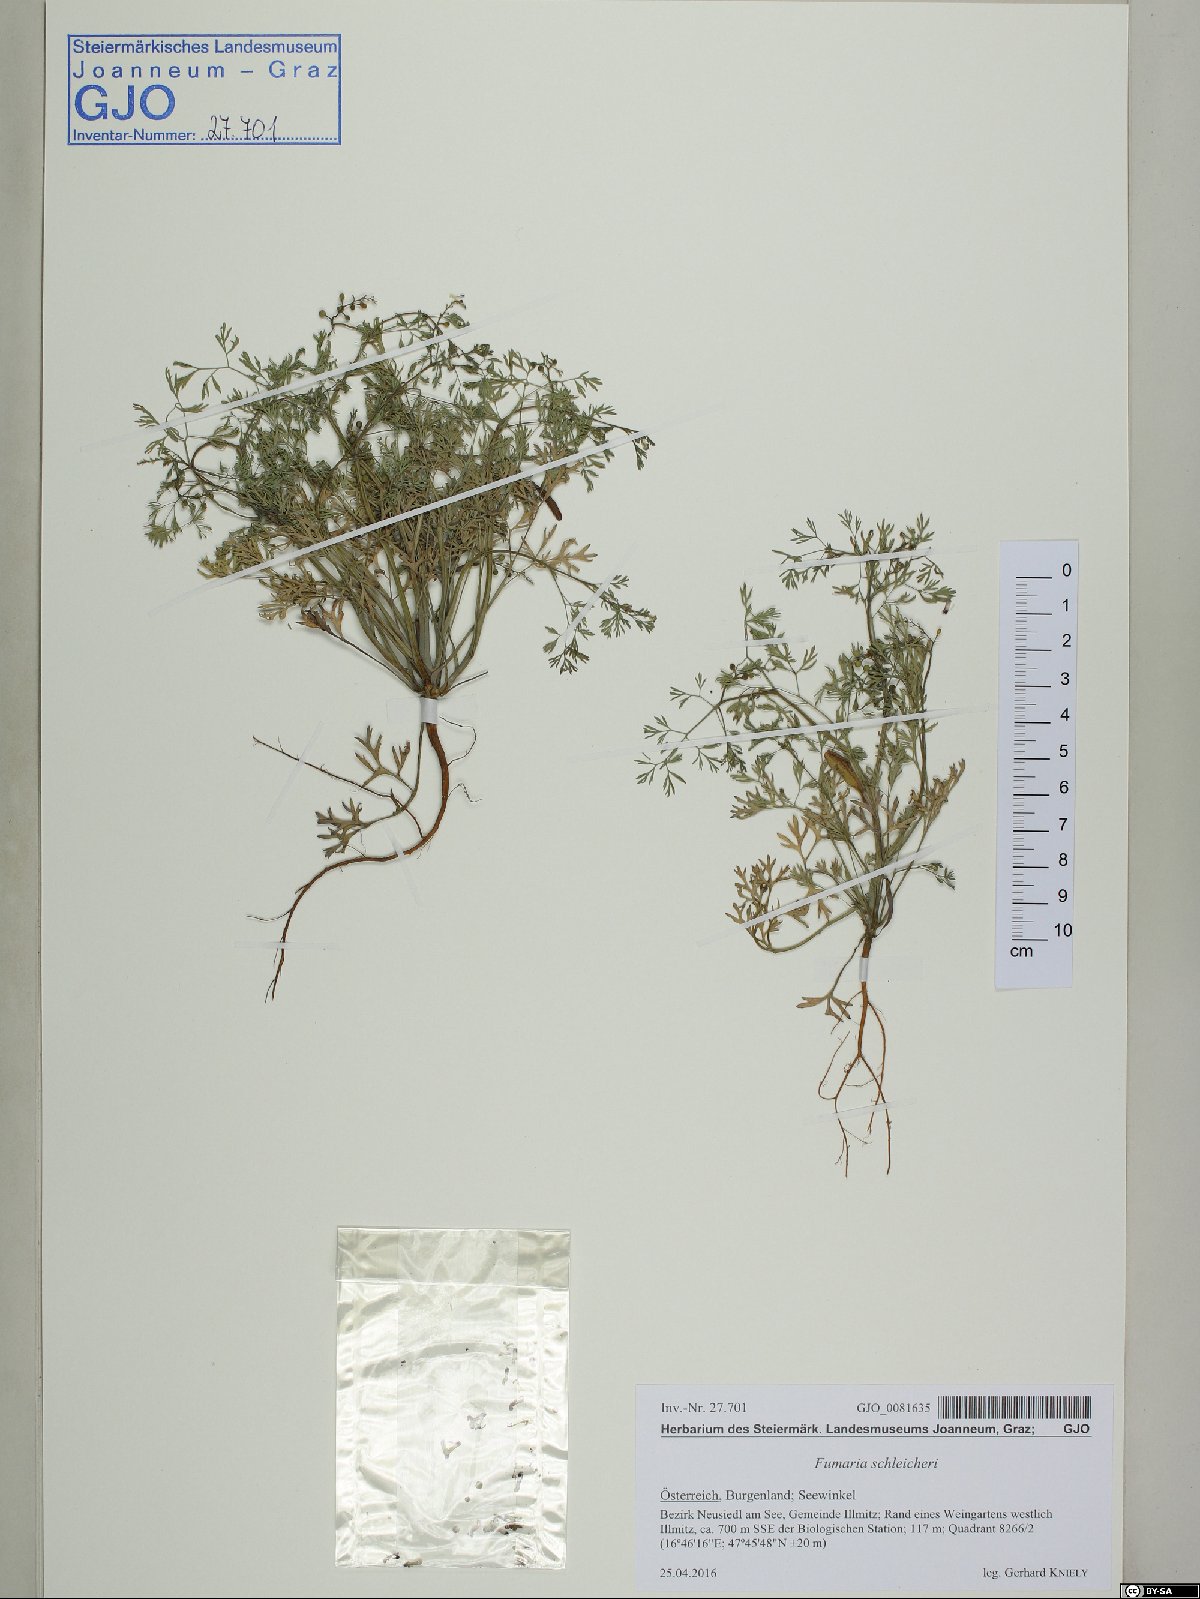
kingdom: Plantae
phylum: Tracheophyta
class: Magnoliopsida
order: Ranunculales
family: Papaveraceae
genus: Fumaria
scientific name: Fumaria schleicheri
